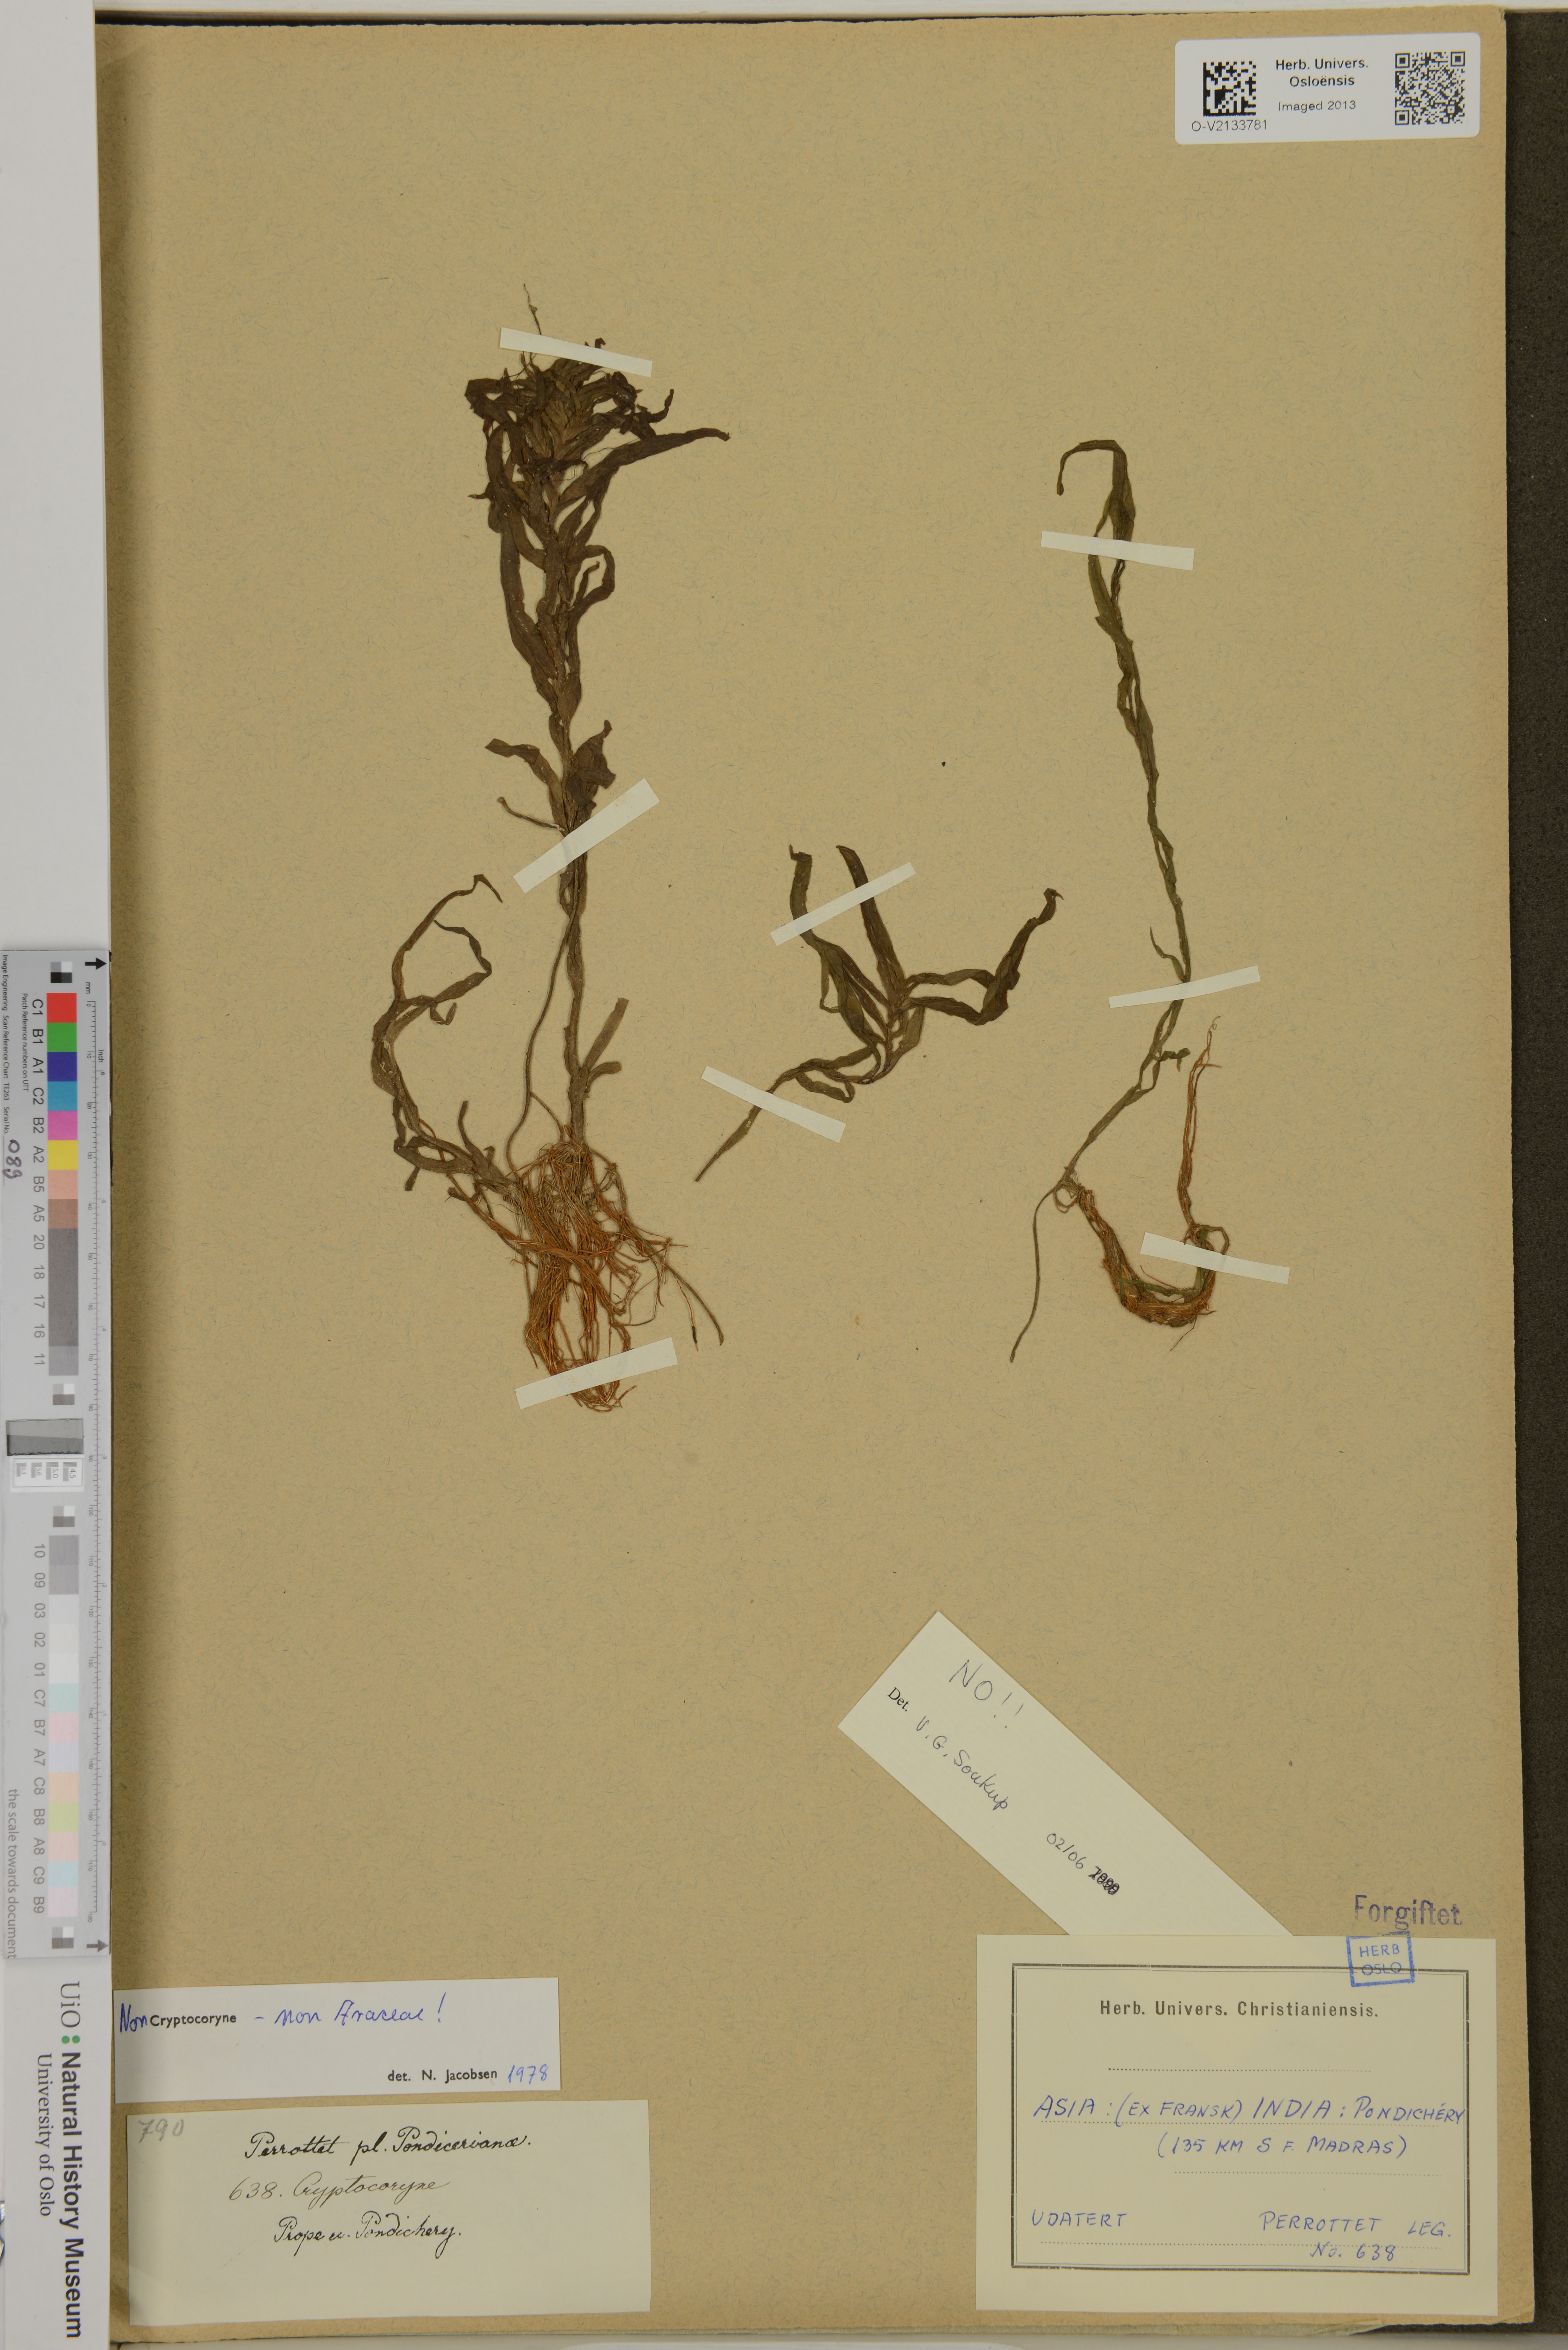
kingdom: Plantae
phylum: Tracheophyta
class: Liliopsida
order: Alismatales
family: Araceae
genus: Cryptocoryne
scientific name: Cryptocoryne
